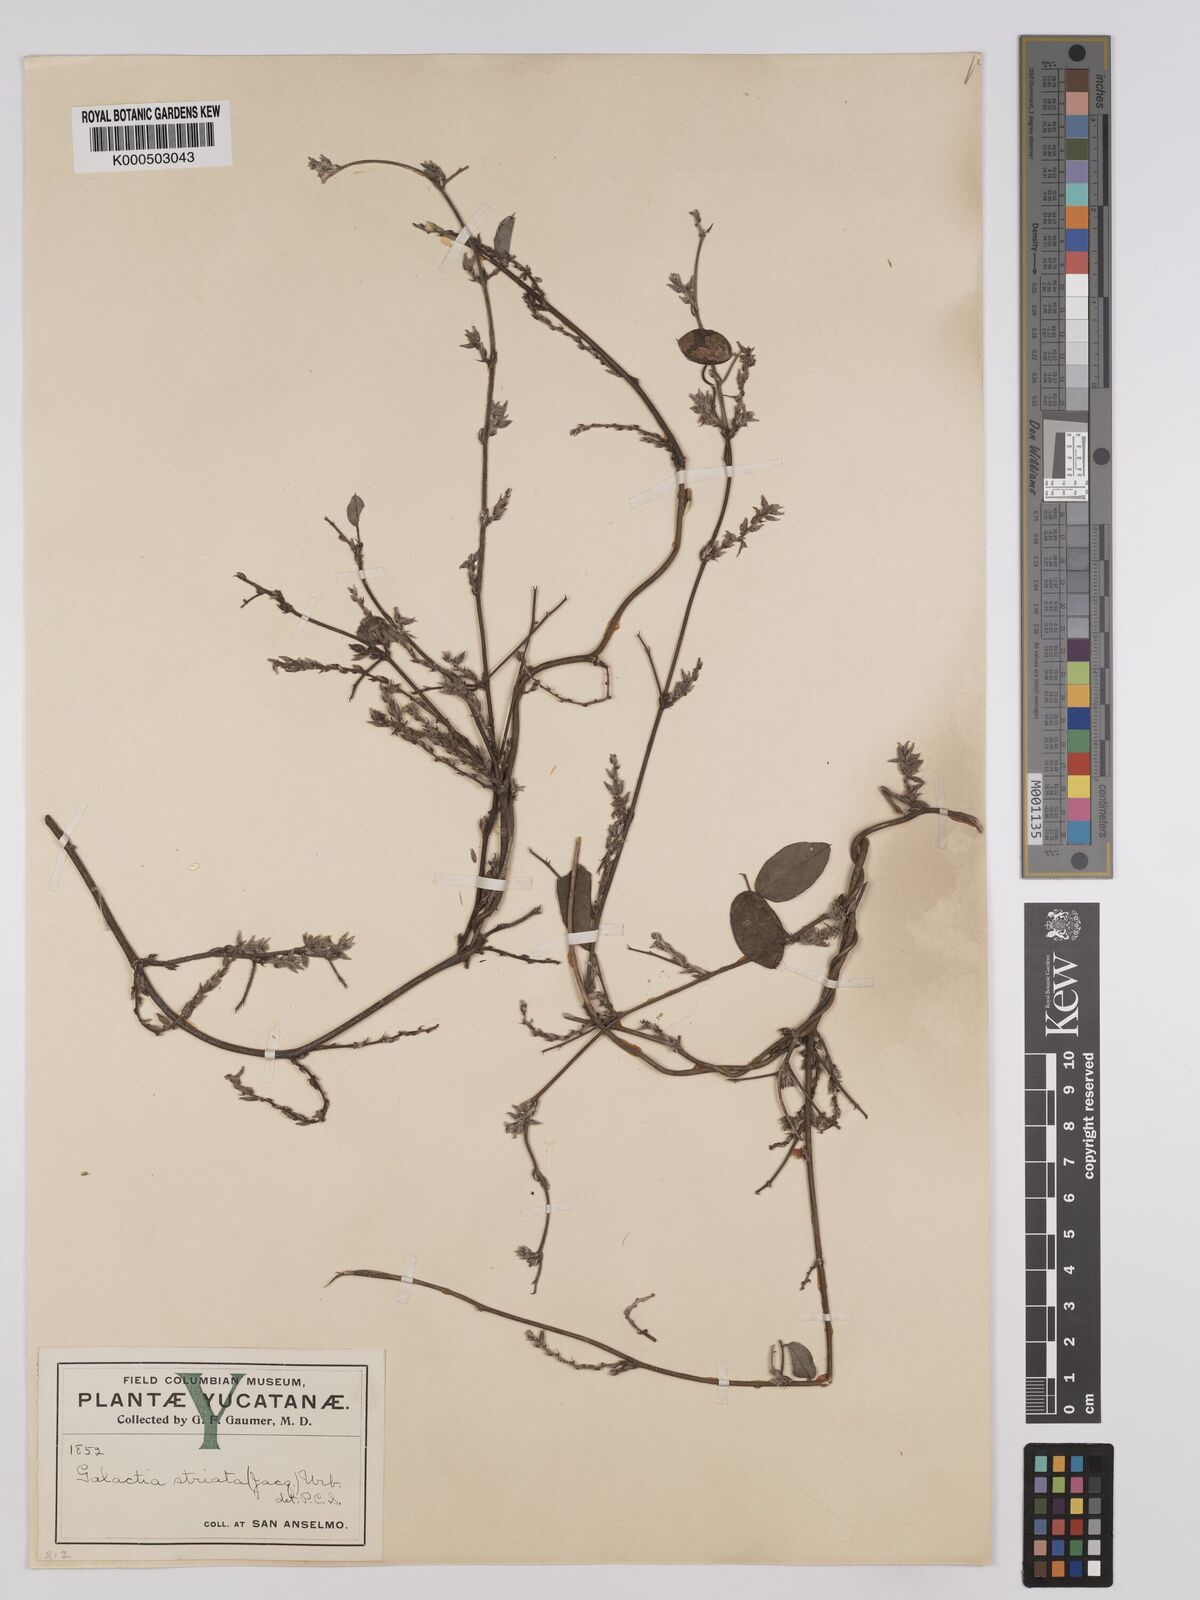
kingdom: Plantae
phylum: Tracheophyta
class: Magnoliopsida
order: Fabales
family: Fabaceae
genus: Galactia
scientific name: Galactia striata
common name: Florida hammock milkpea
